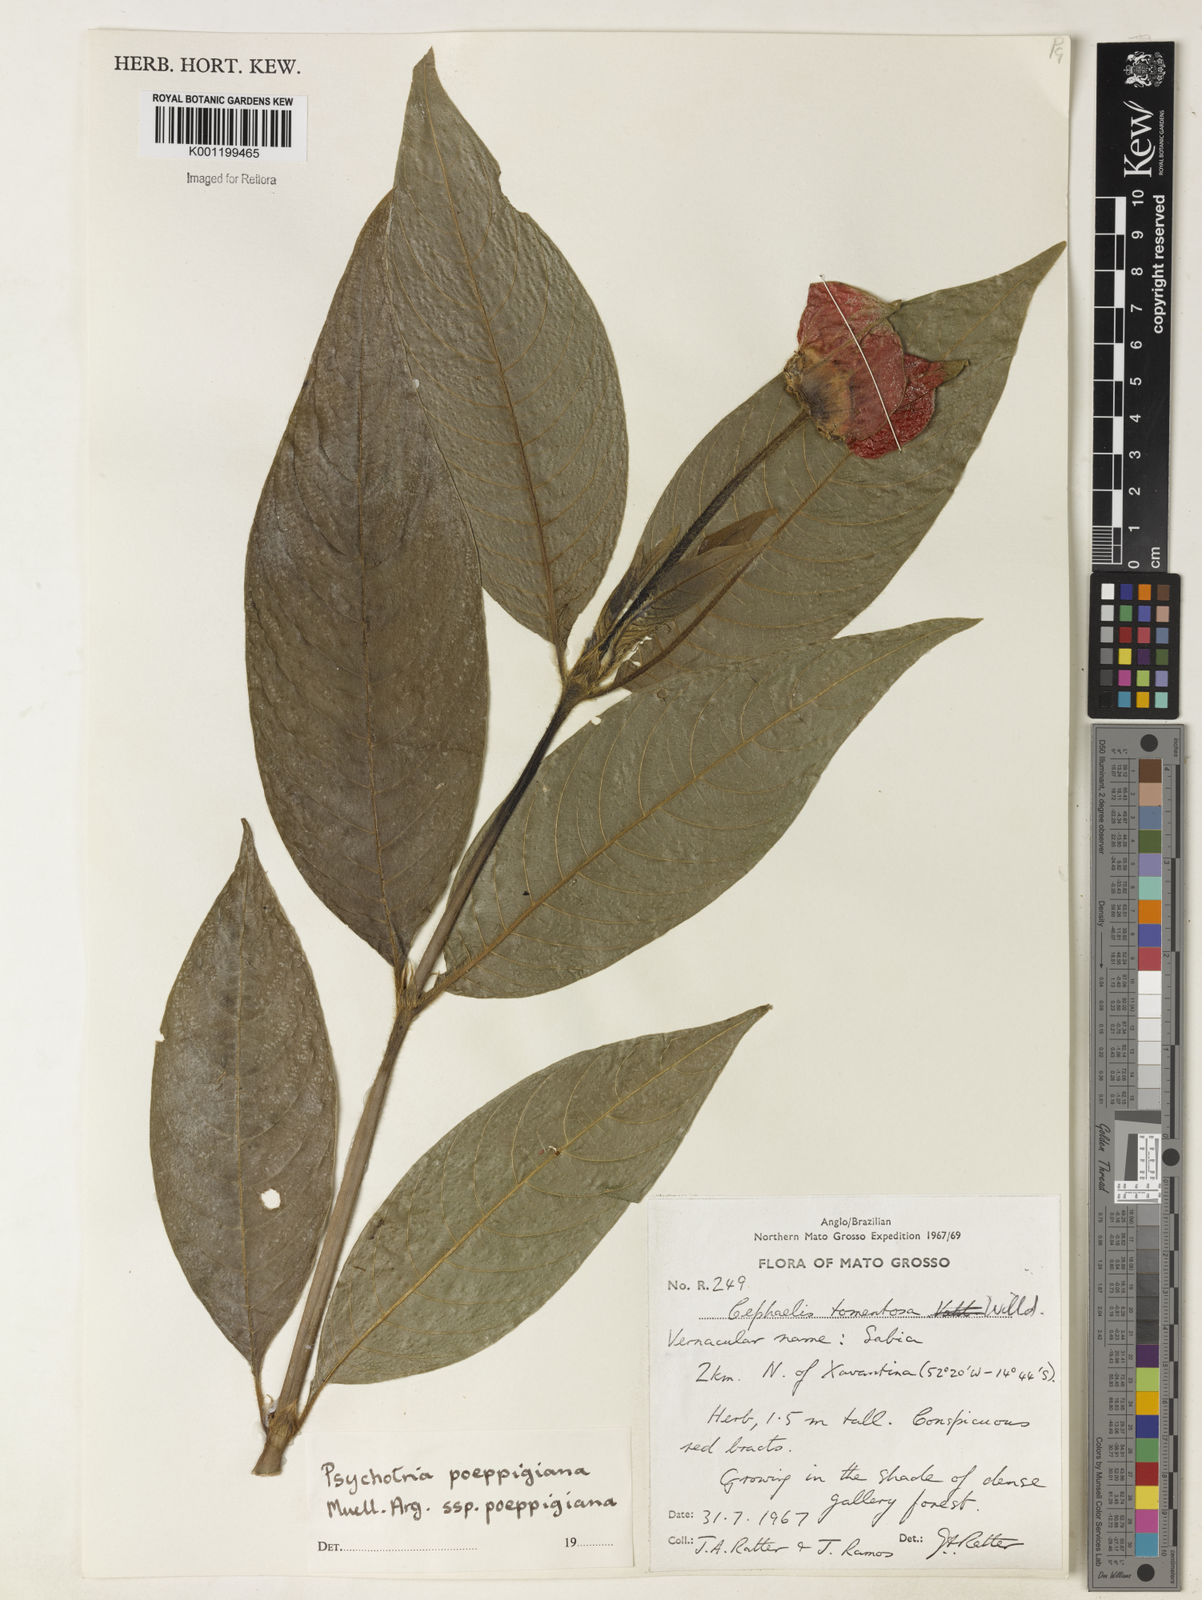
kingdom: Plantae
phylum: Tracheophyta
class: Magnoliopsida
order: Gentianales
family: Rubiaceae
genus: Psychotria
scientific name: Psychotria
